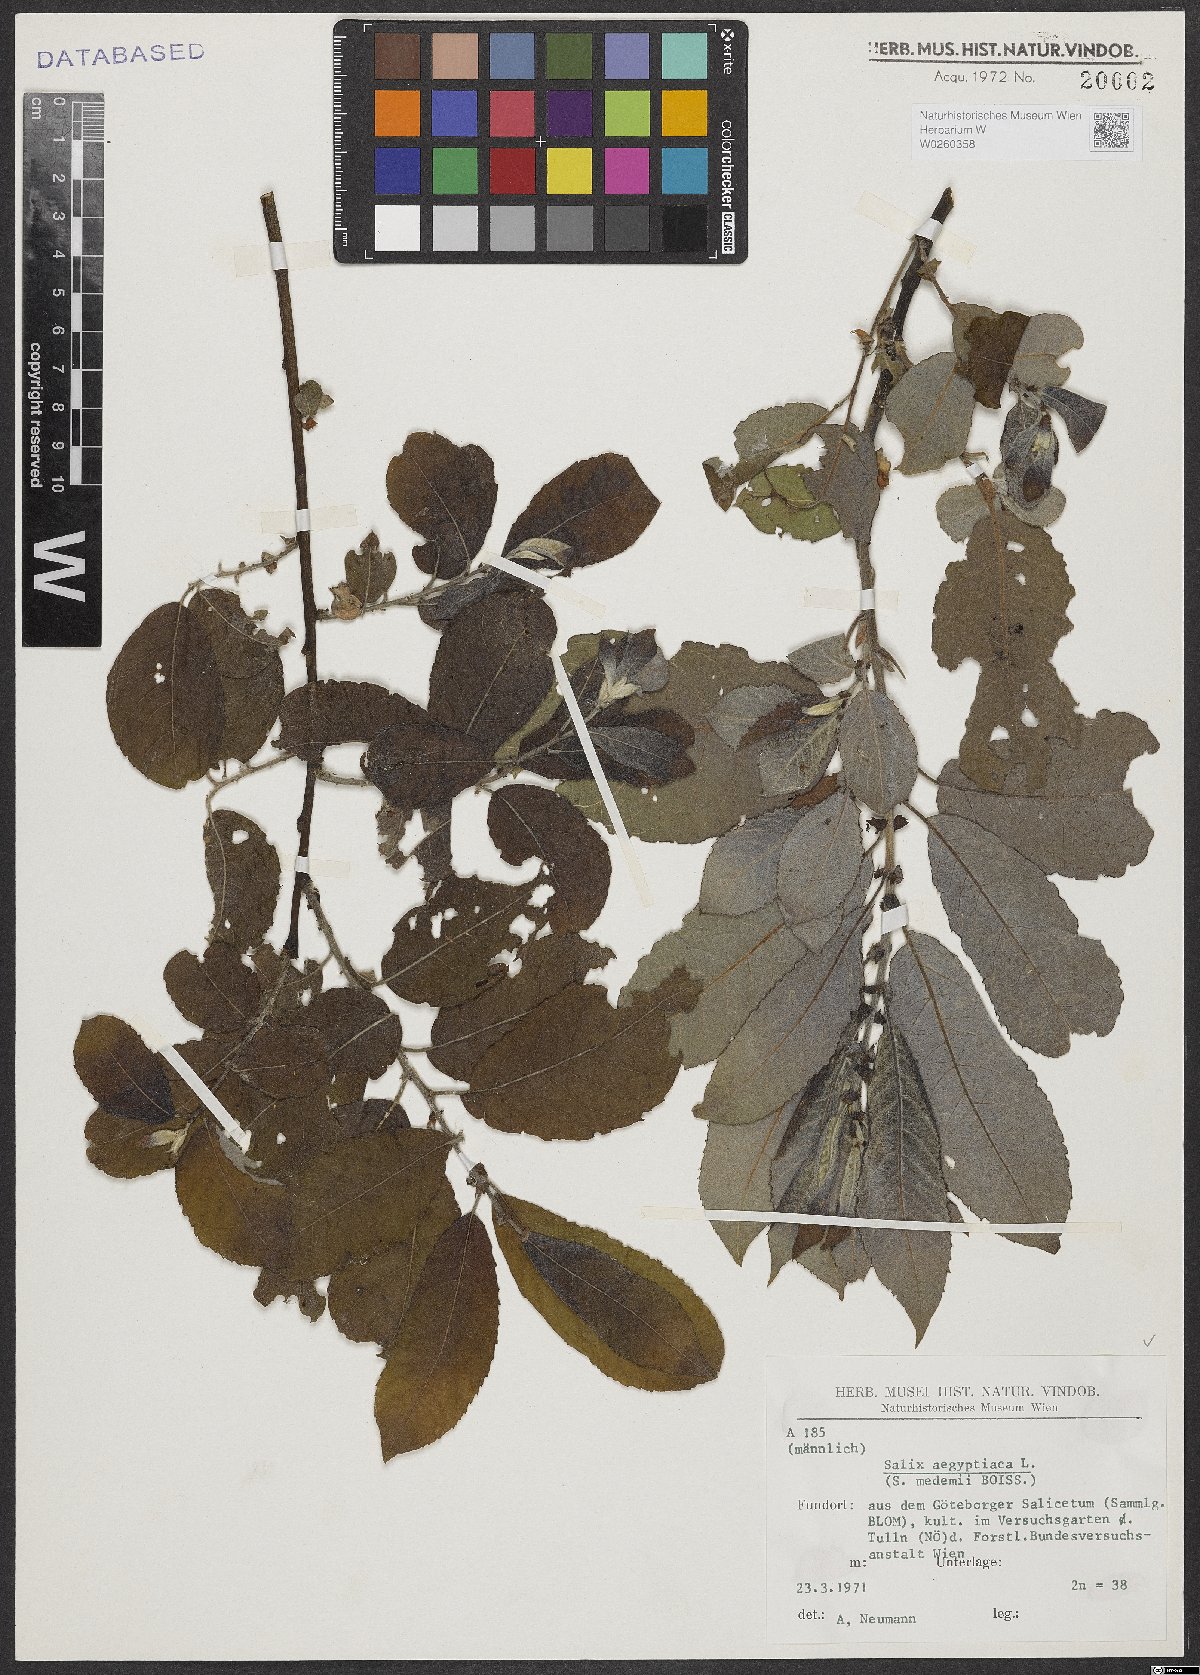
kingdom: Plantae
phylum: Tracheophyta
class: Magnoliopsida
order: Malpighiales
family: Salicaceae
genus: Salix
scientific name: Salix aegyptiaca
